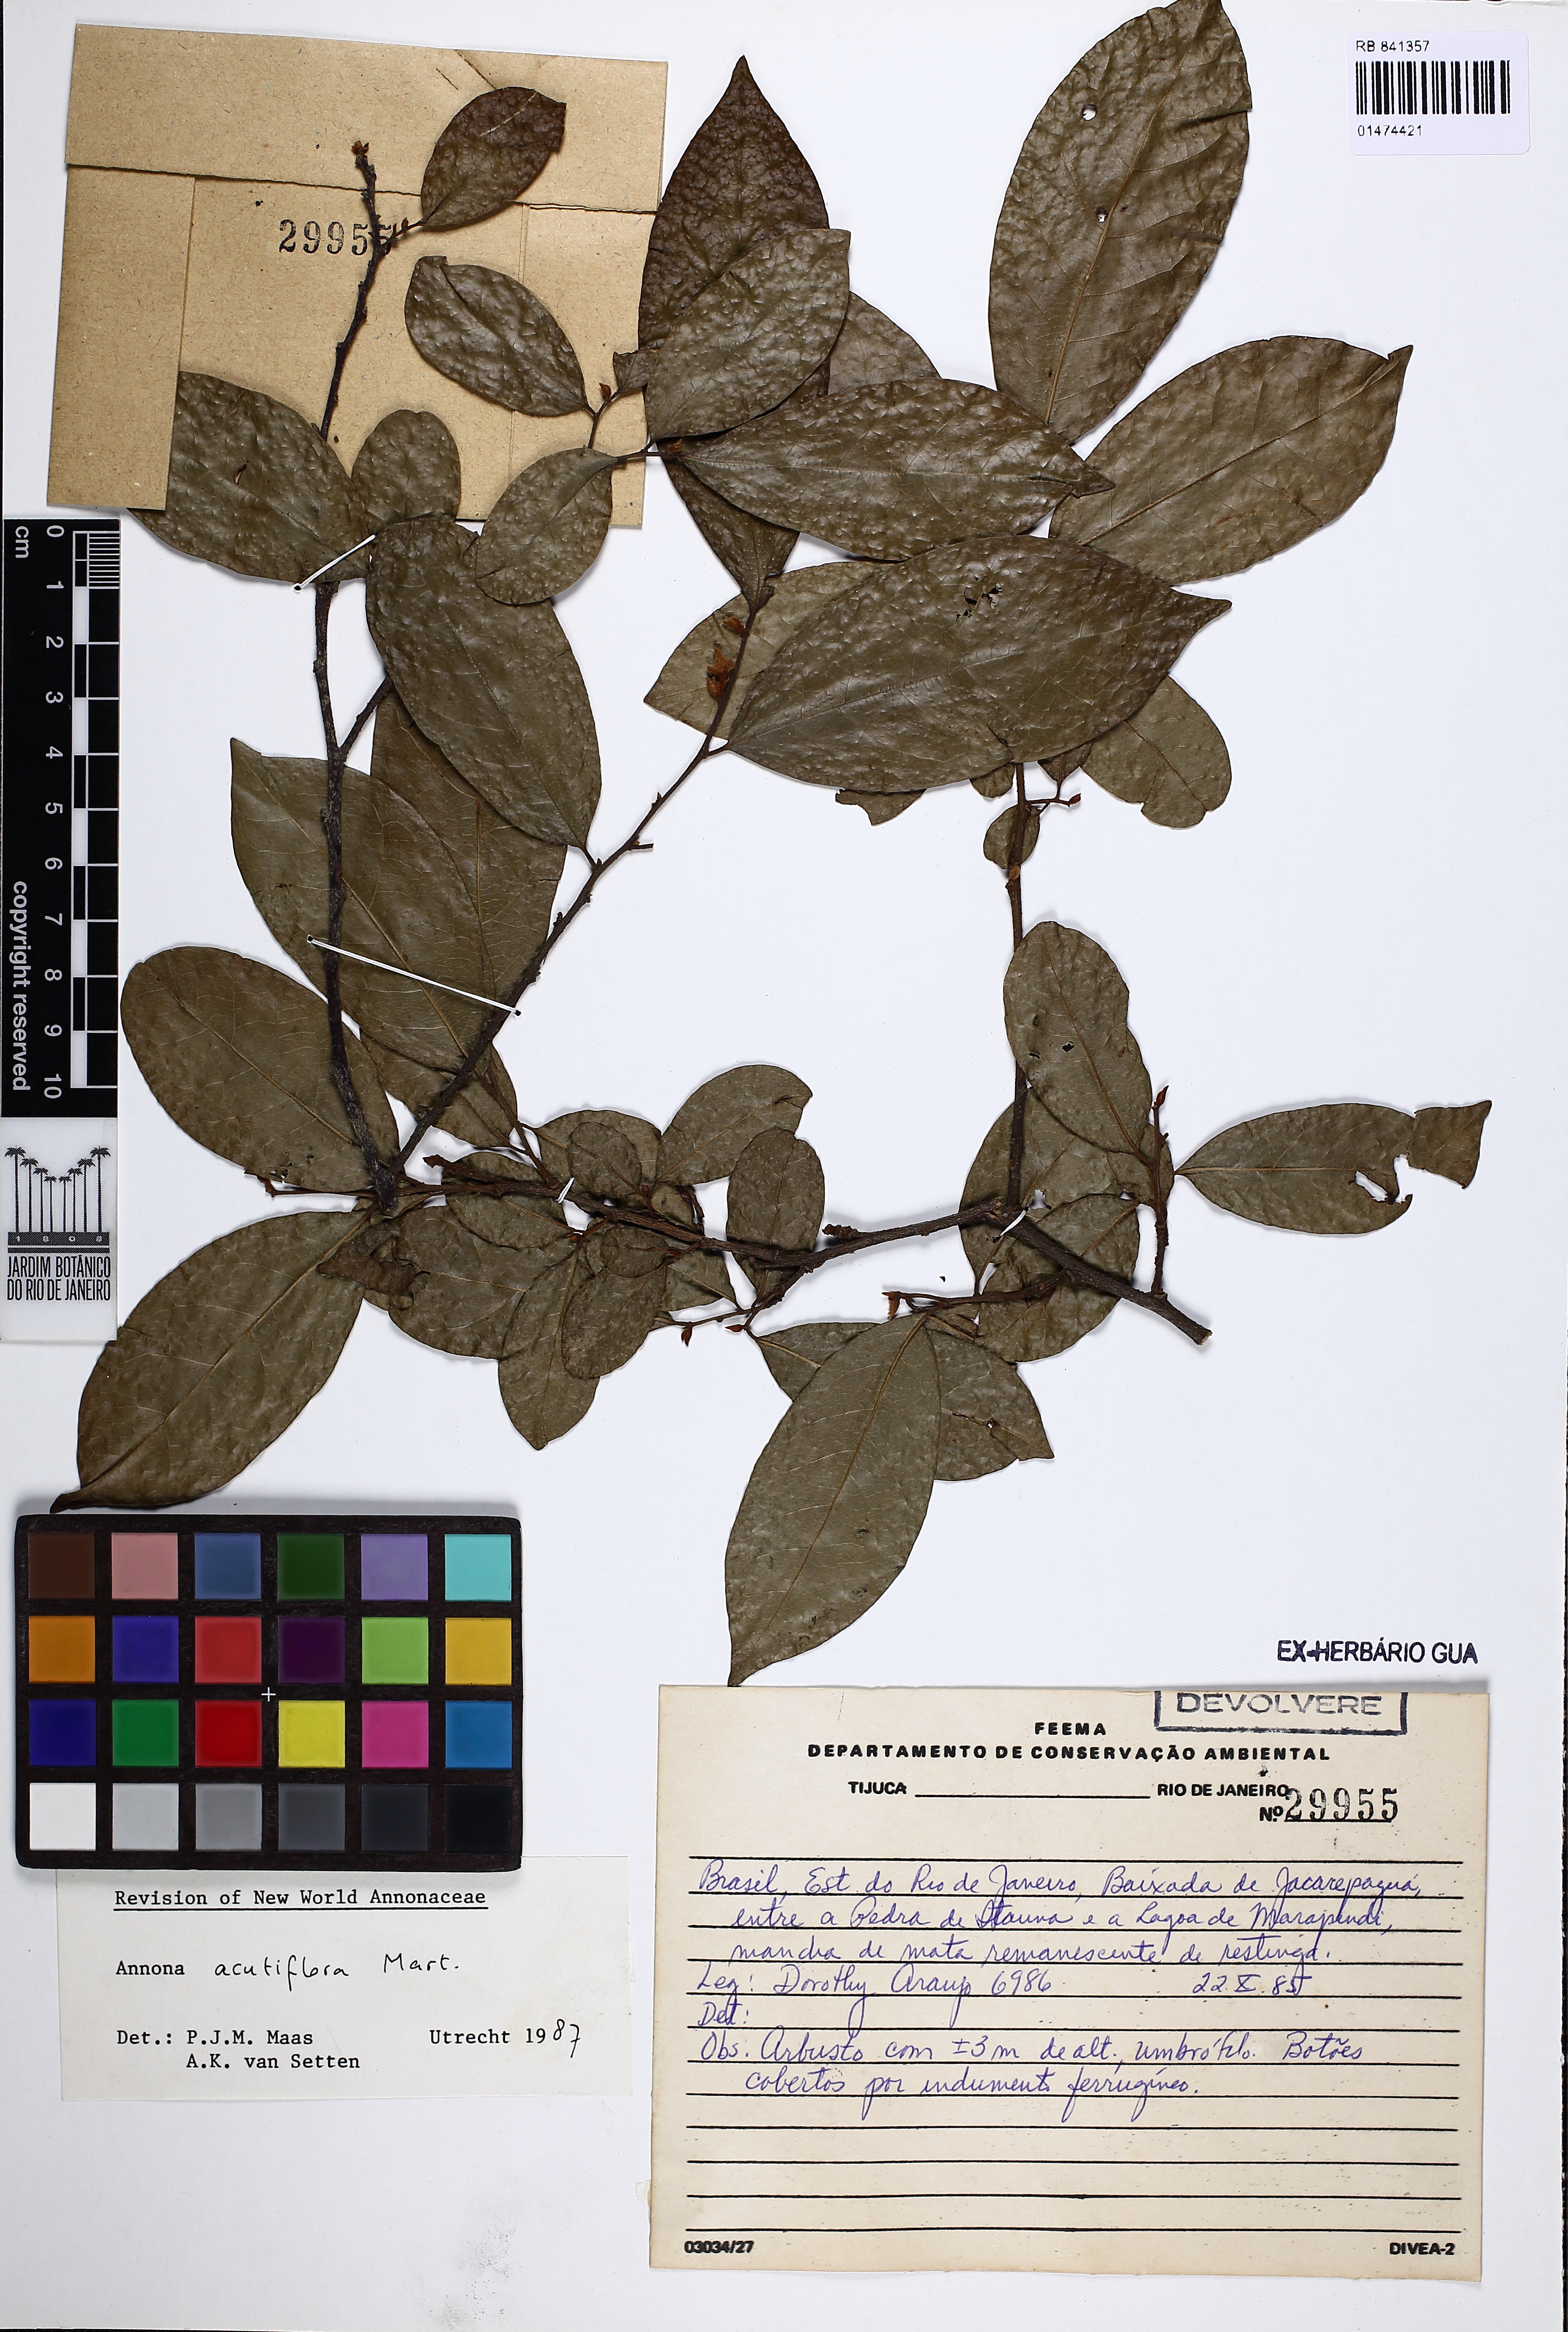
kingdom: Plantae
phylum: Tracheophyta
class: Magnoliopsida
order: Magnoliales
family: Annonaceae
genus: Annona
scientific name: Annona acutiflora
